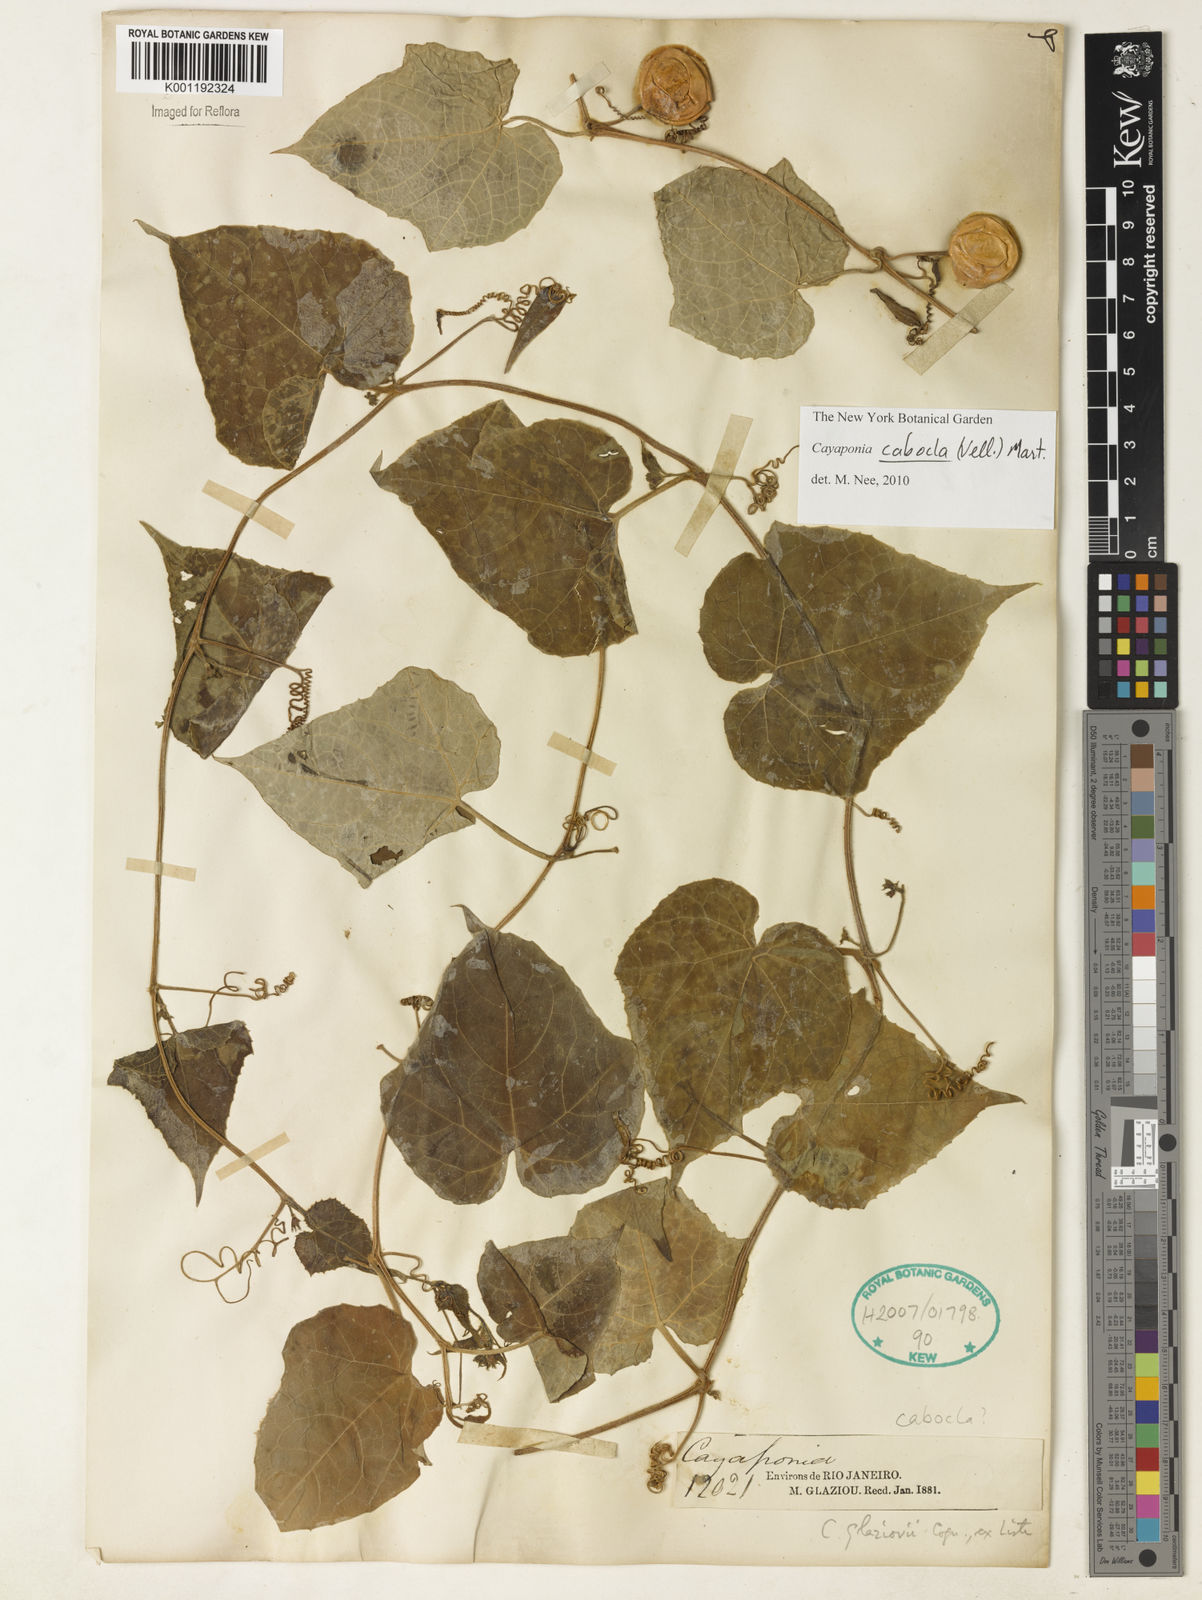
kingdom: Plantae
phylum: Tracheophyta
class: Magnoliopsida
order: Cucurbitales
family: Cucurbitaceae
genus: Cayaponia
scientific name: Cayaponia cabocla
